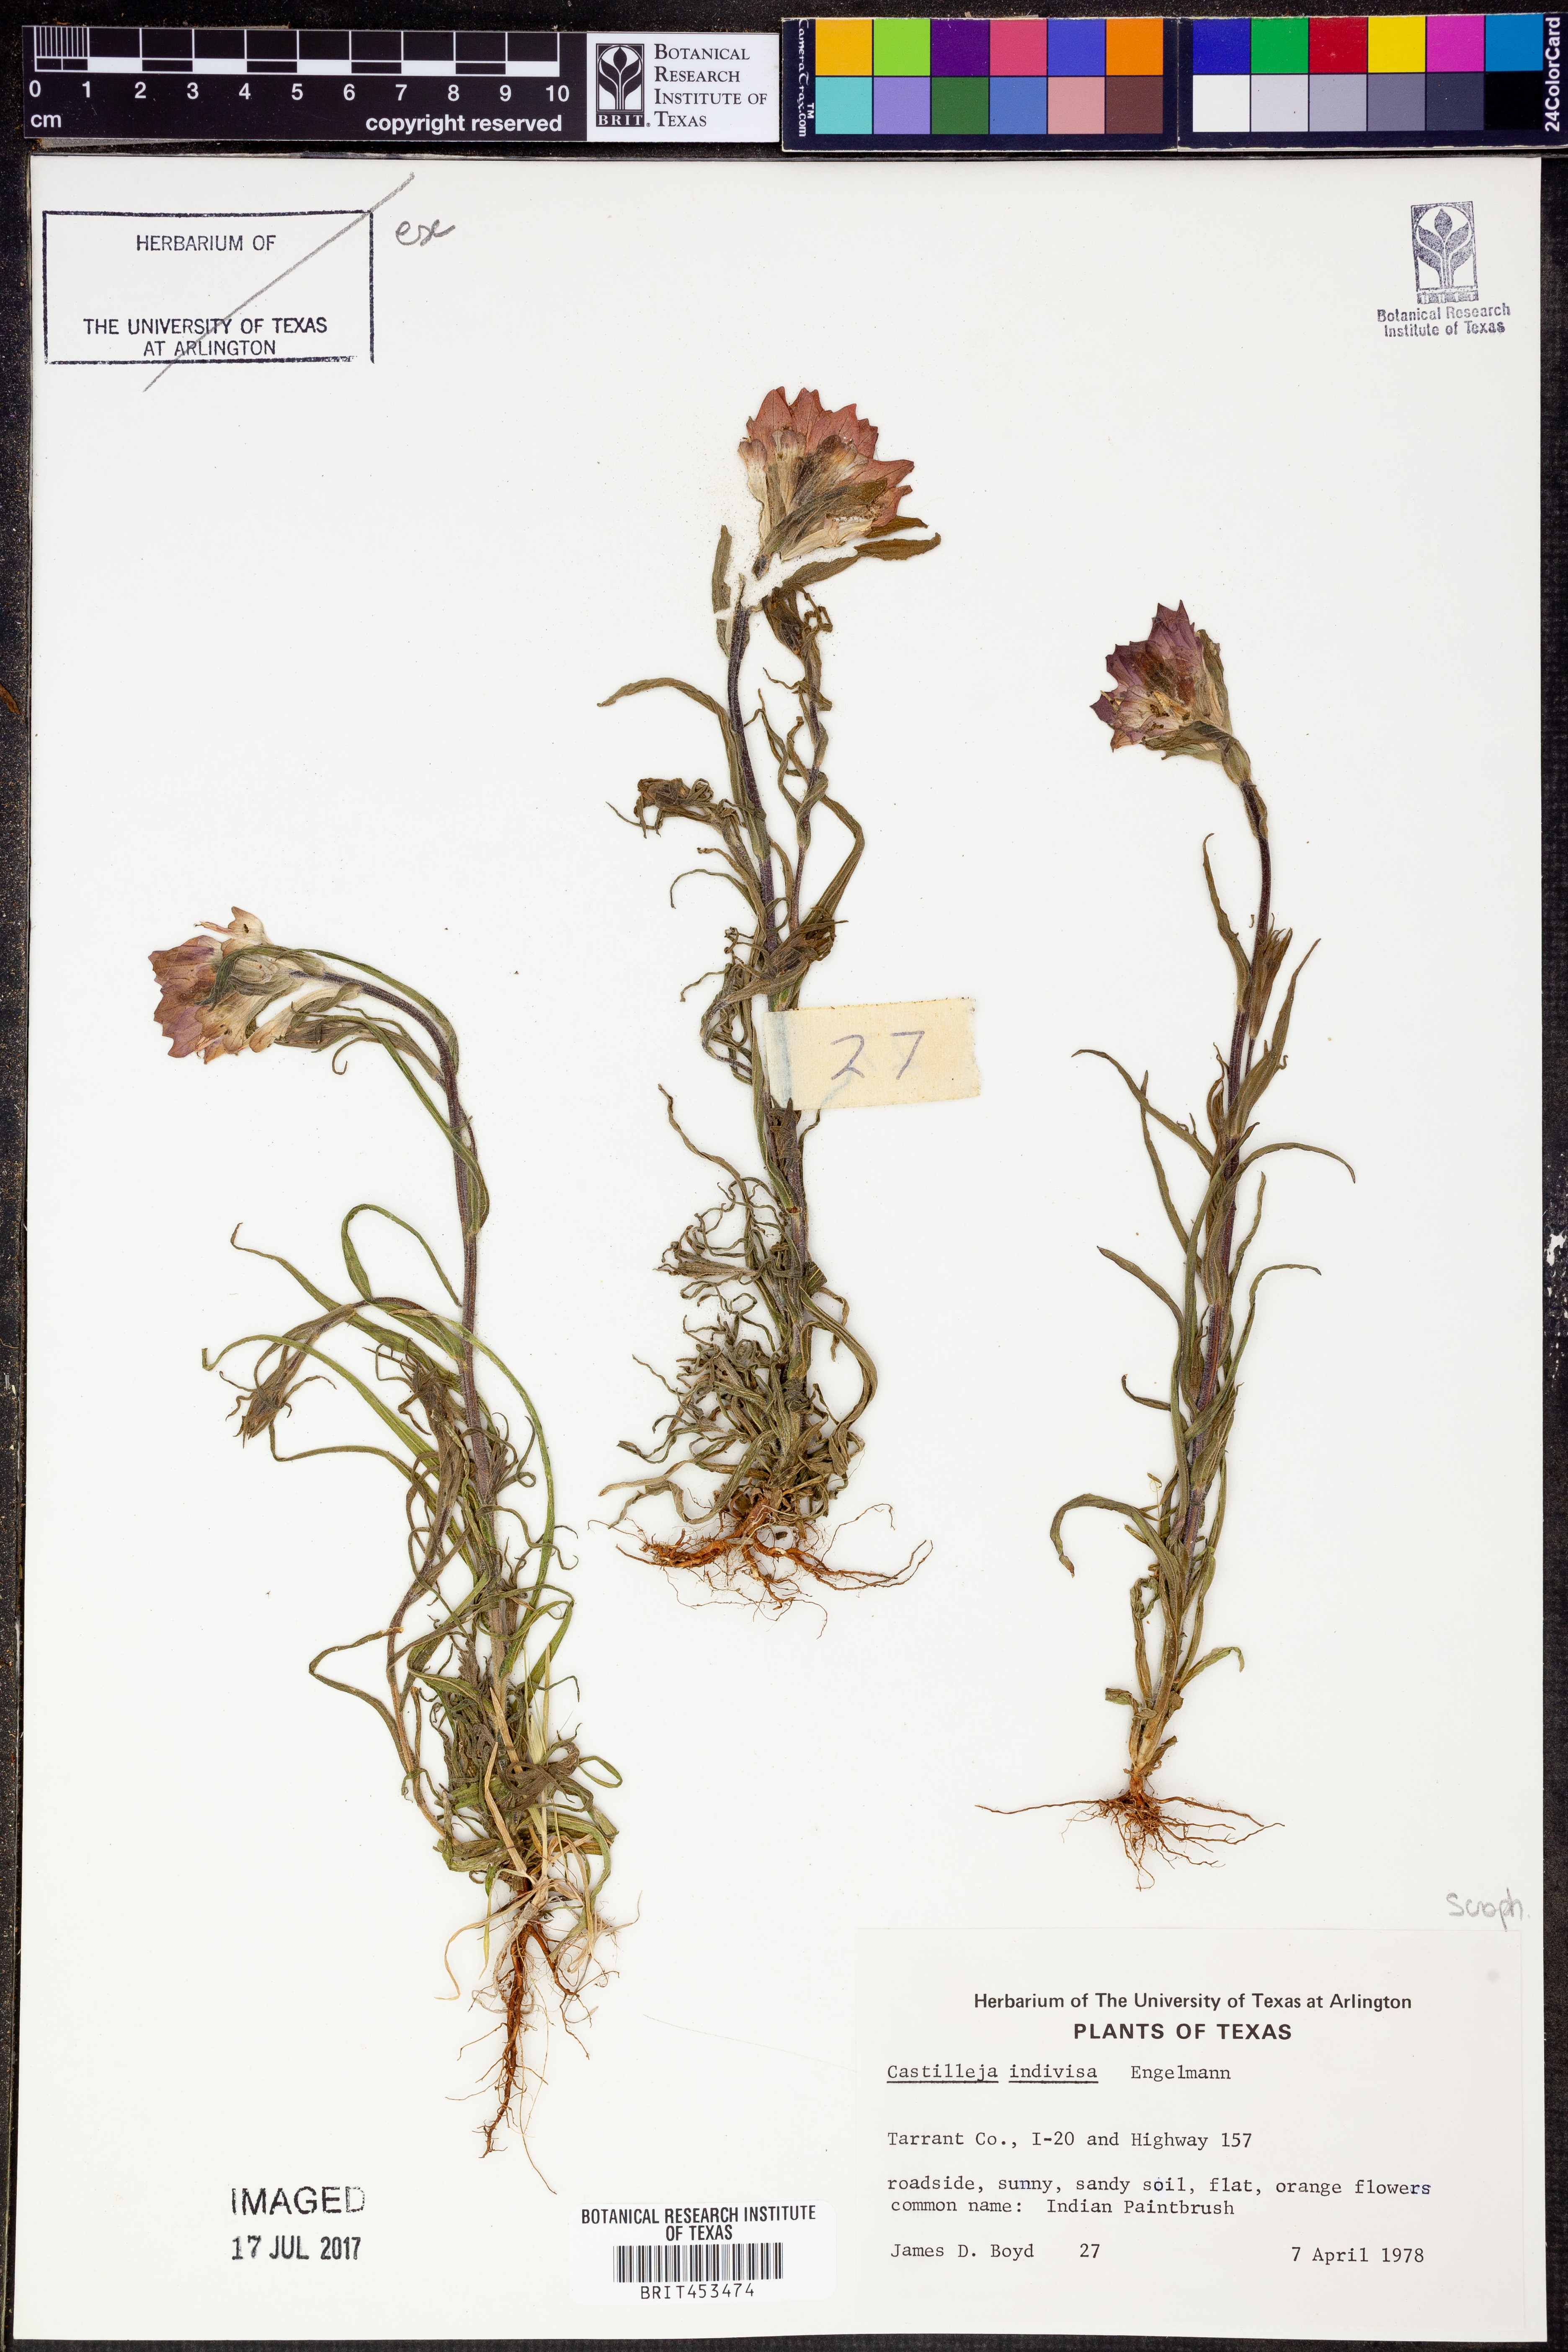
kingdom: Plantae
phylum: Tracheophyta
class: Magnoliopsida
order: Lamiales
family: Orobanchaceae
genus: Castilleja
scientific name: Castilleja indivisa
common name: Texas paintbrush
